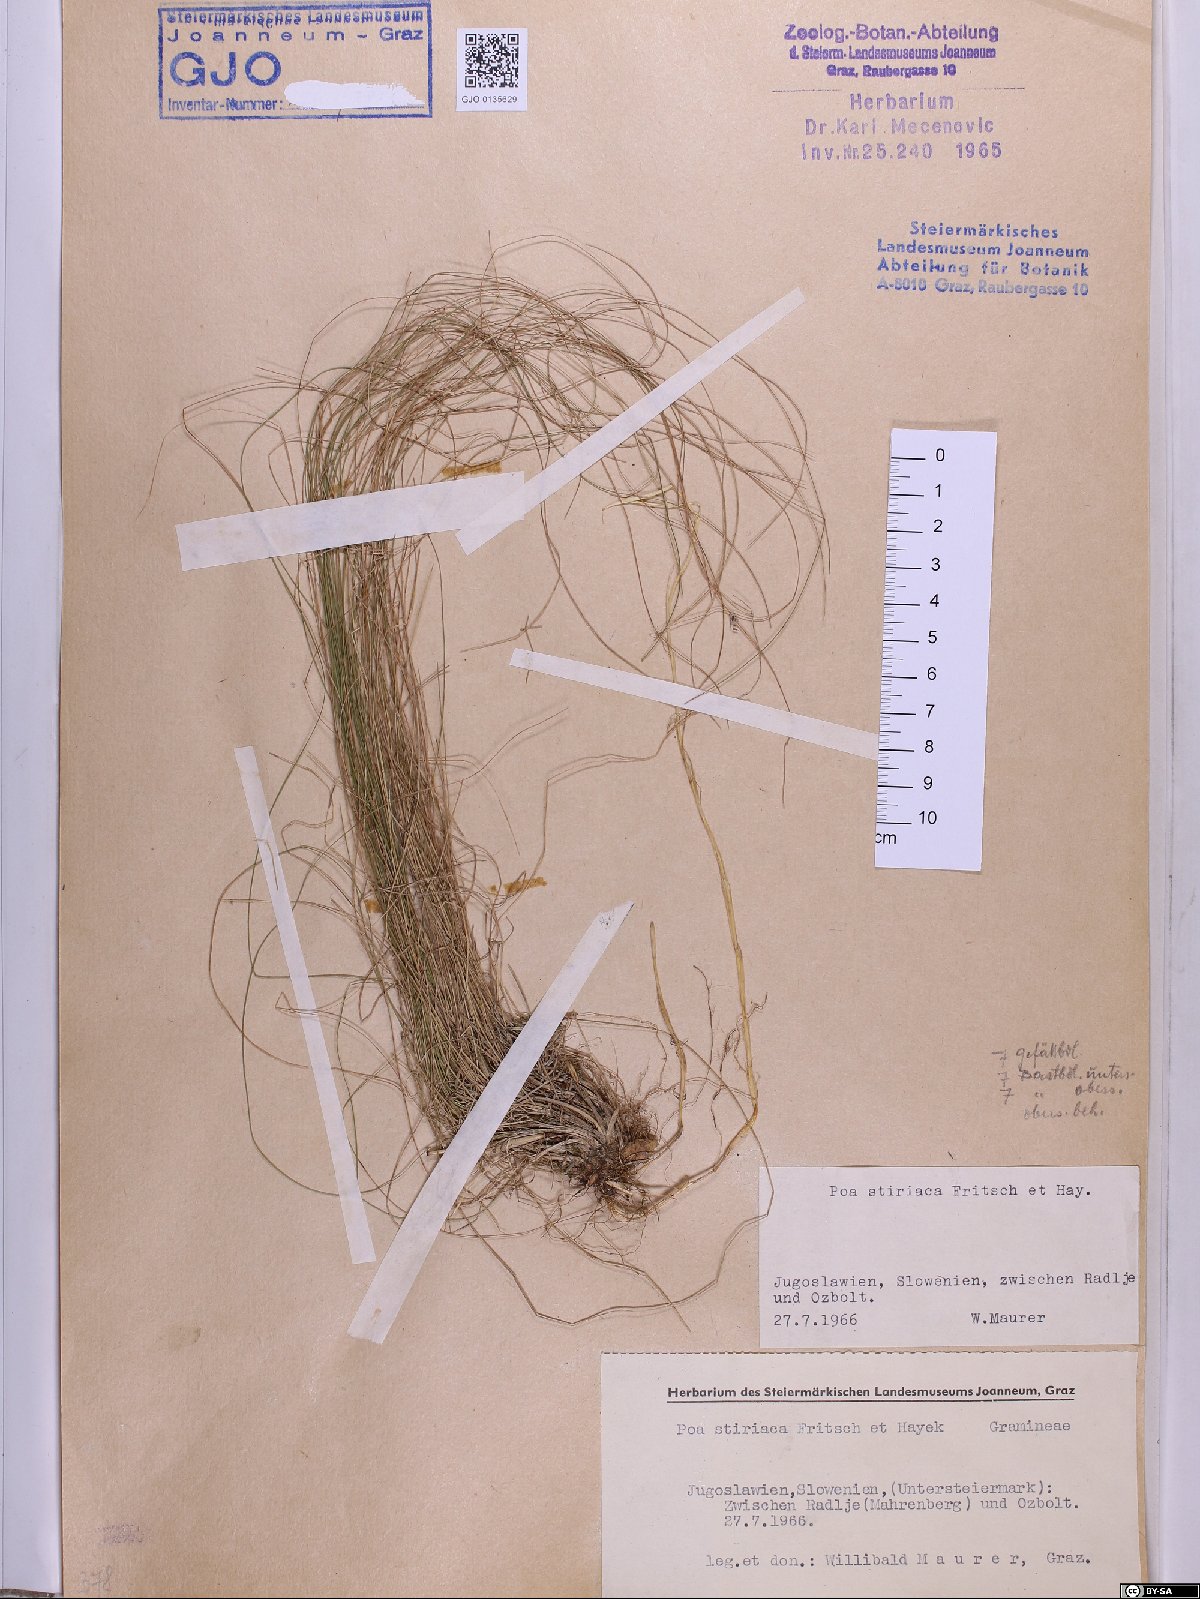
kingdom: Plantae
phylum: Tracheophyta
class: Liliopsida
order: Poales
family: Poaceae
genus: Poa
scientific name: Poa stiriaca
